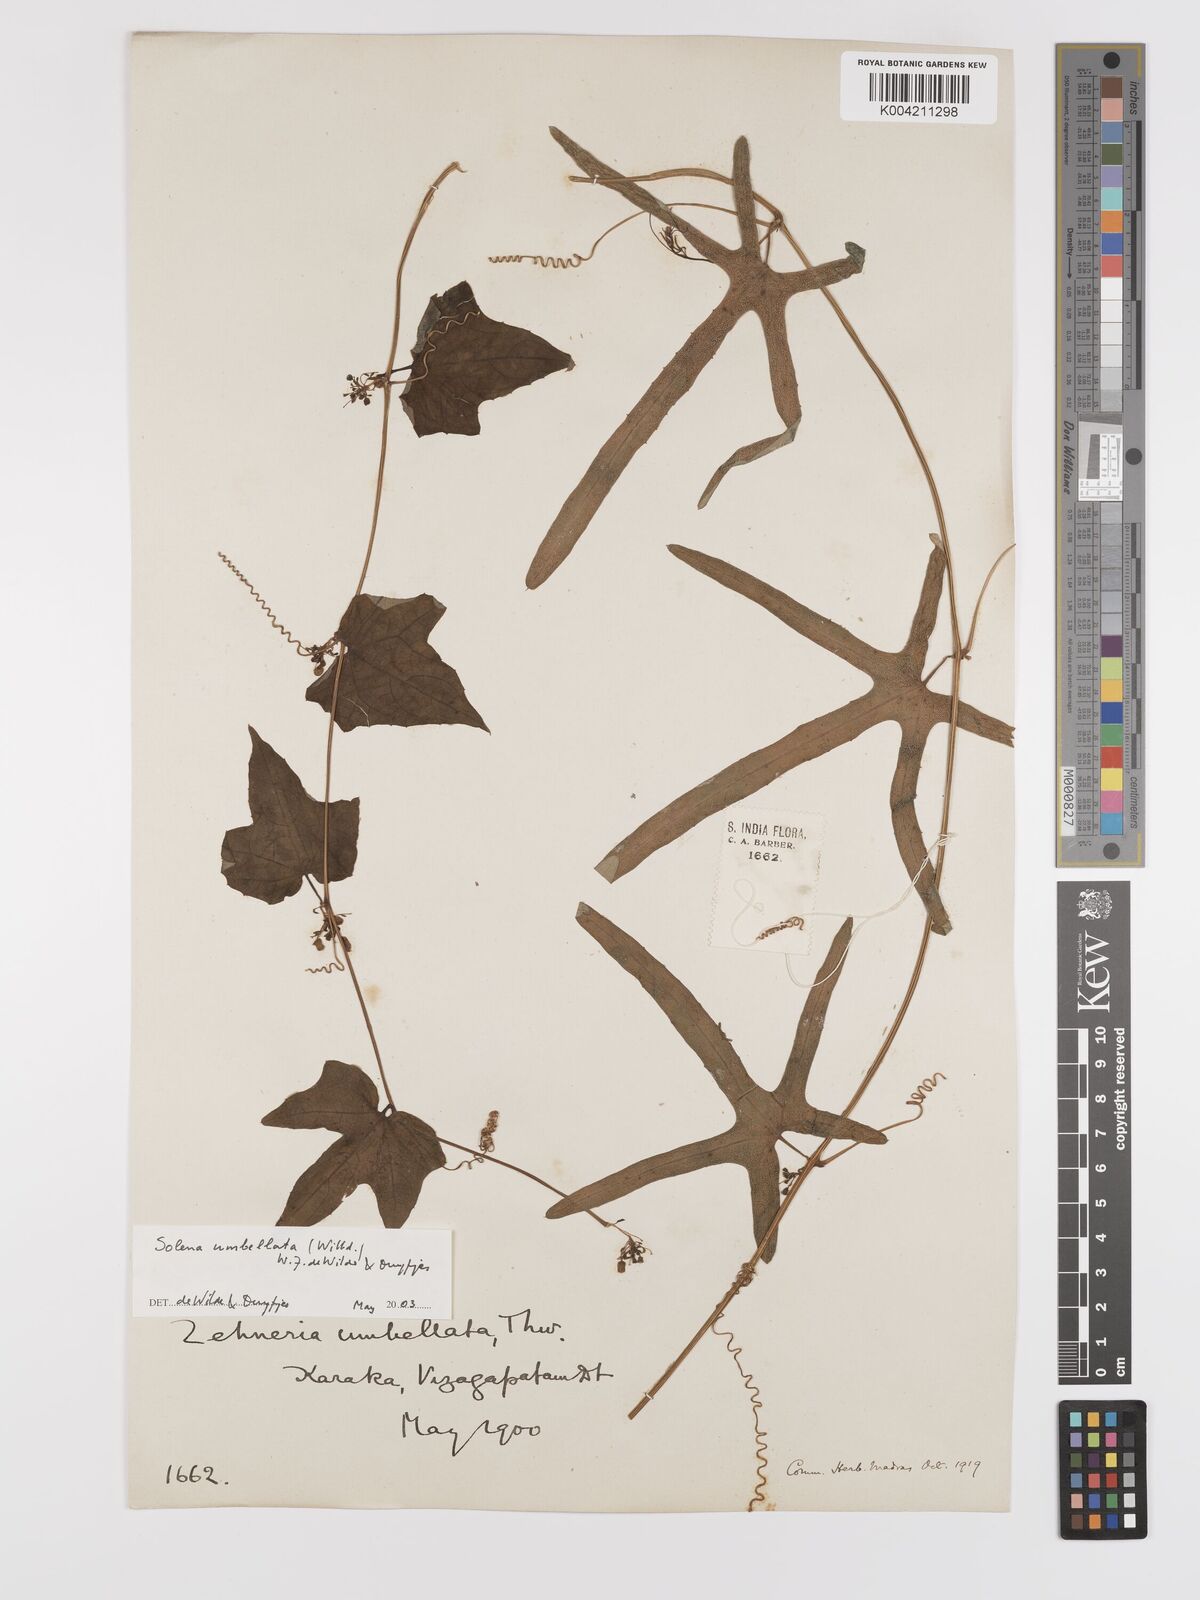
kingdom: Plantae
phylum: Tracheophyta
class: Magnoliopsida
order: Cucurbitales
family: Cucurbitaceae
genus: Solena
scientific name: Solena amplexicaulis
